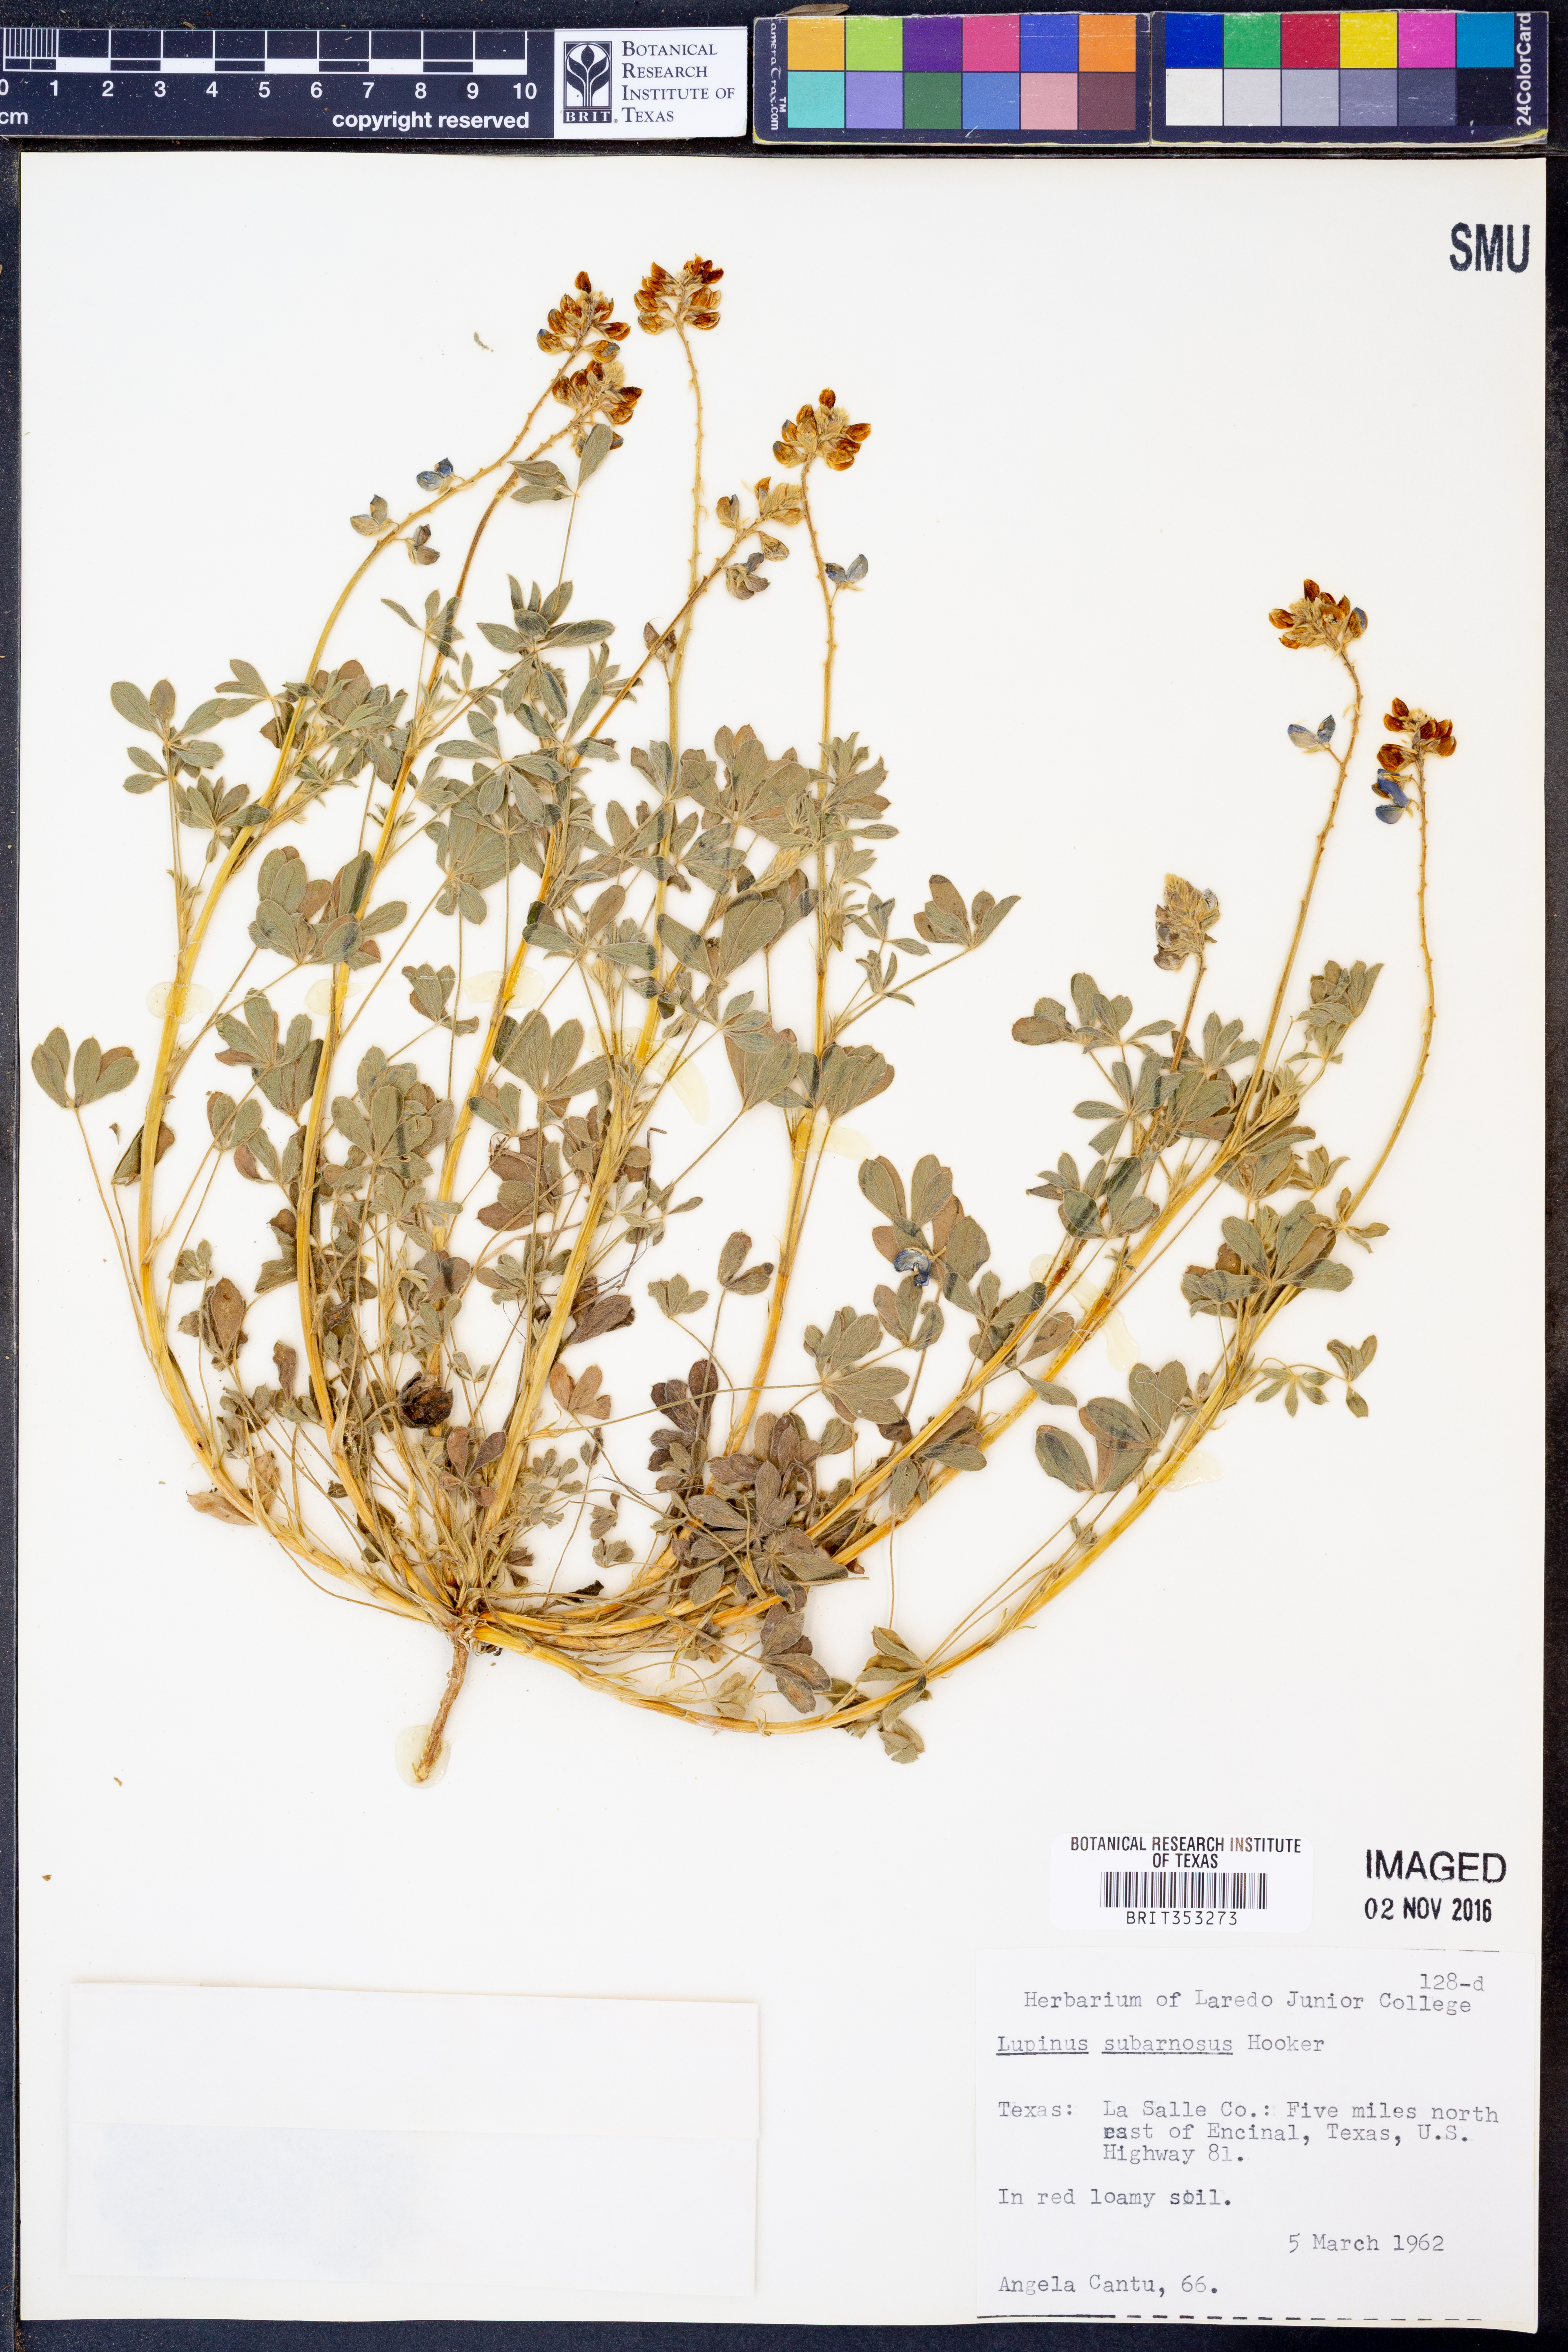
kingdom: Plantae
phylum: Tracheophyta
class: Magnoliopsida
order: Fabales
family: Fabaceae
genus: Lupinus
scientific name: Lupinus subcarnosus
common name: Texas bluebonnet
